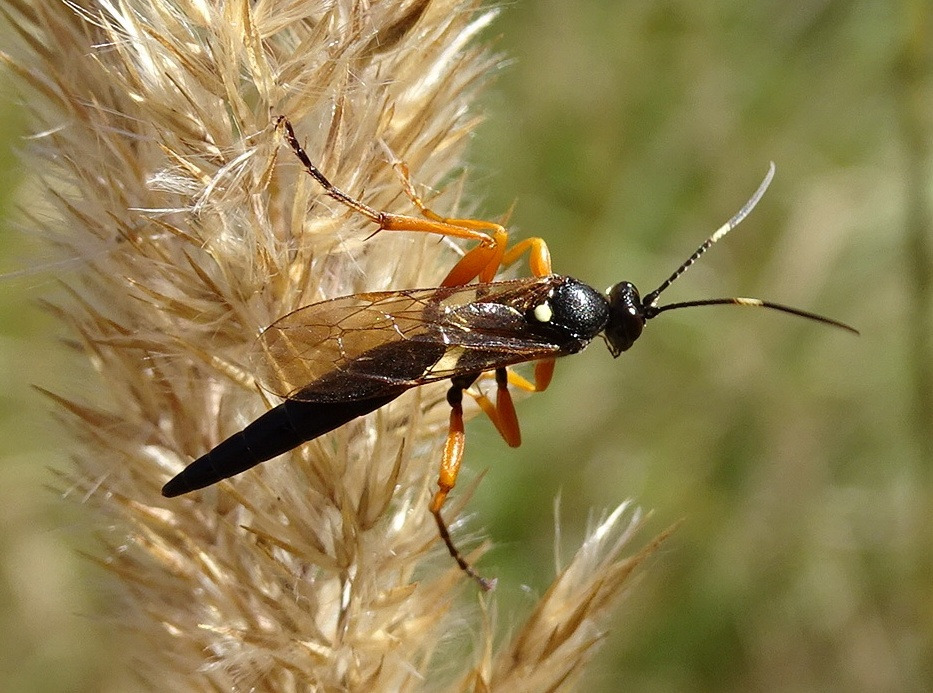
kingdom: Animalia
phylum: Arthropoda
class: Insecta
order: Hymenoptera
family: Ichneumonidae
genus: Limerodops
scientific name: Limerodops elongatus
